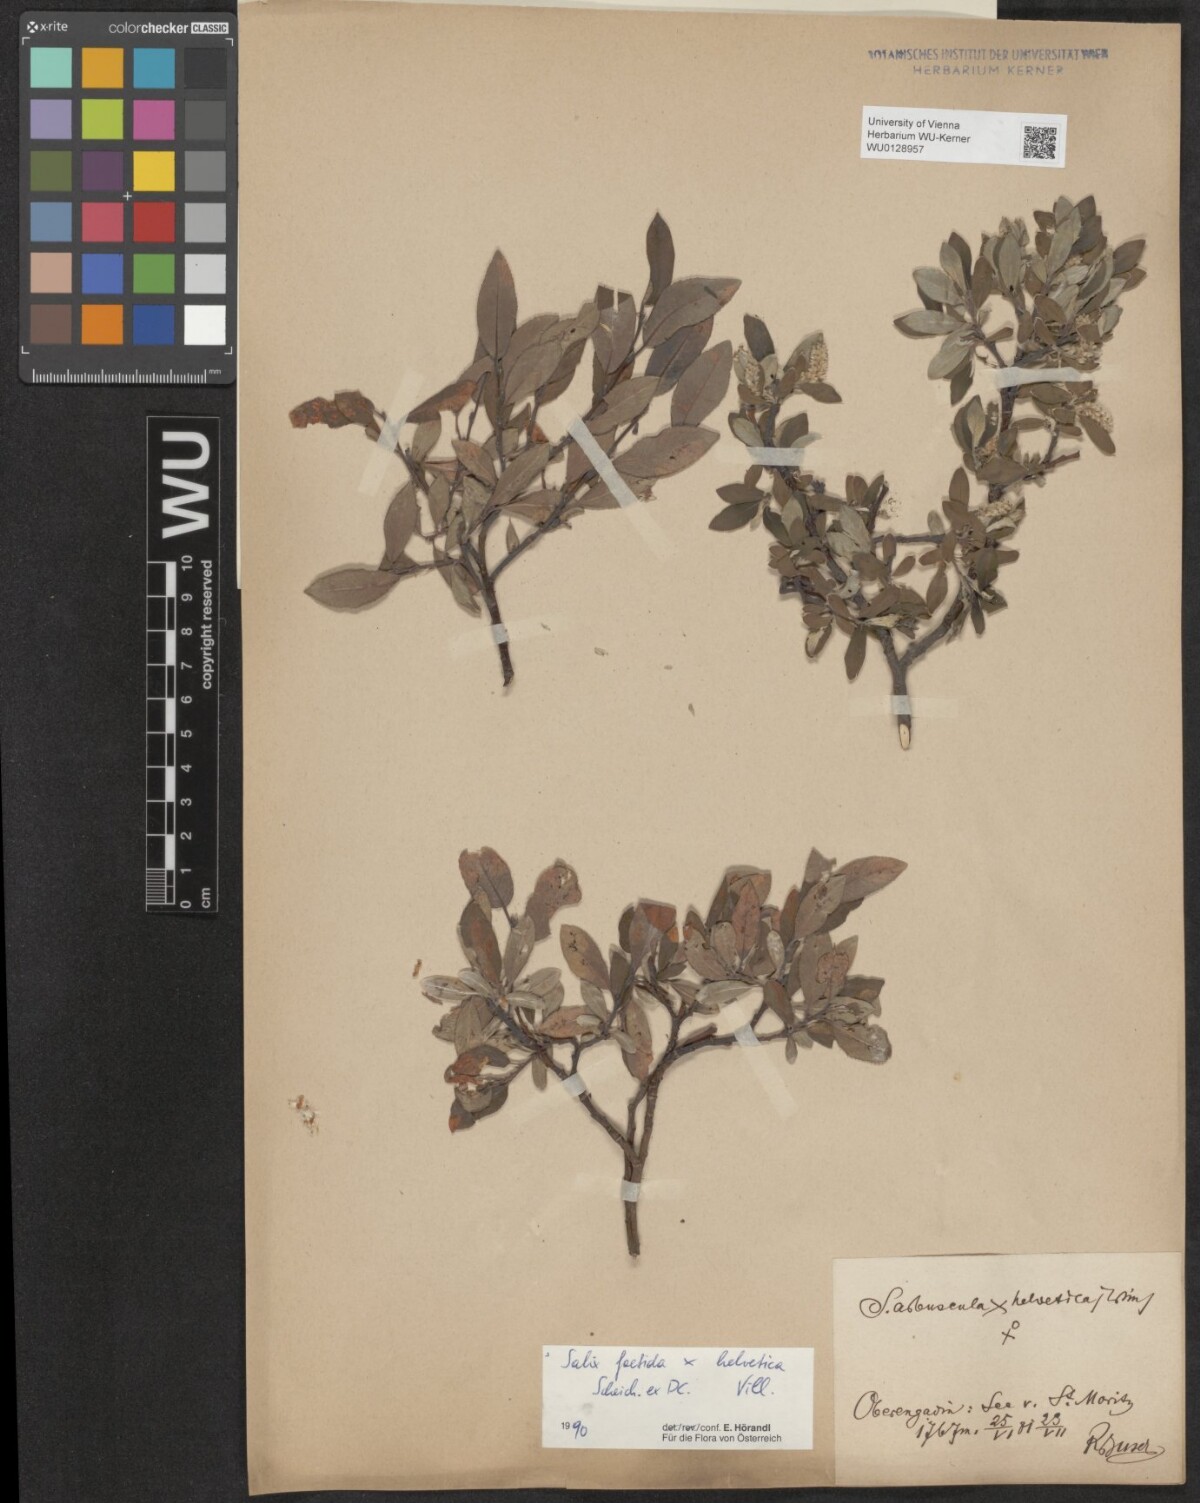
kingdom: Plantae
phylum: Tracheophyta
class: Magnoliopsida
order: Malpighiales
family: Salicaceae
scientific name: Salicaceae
